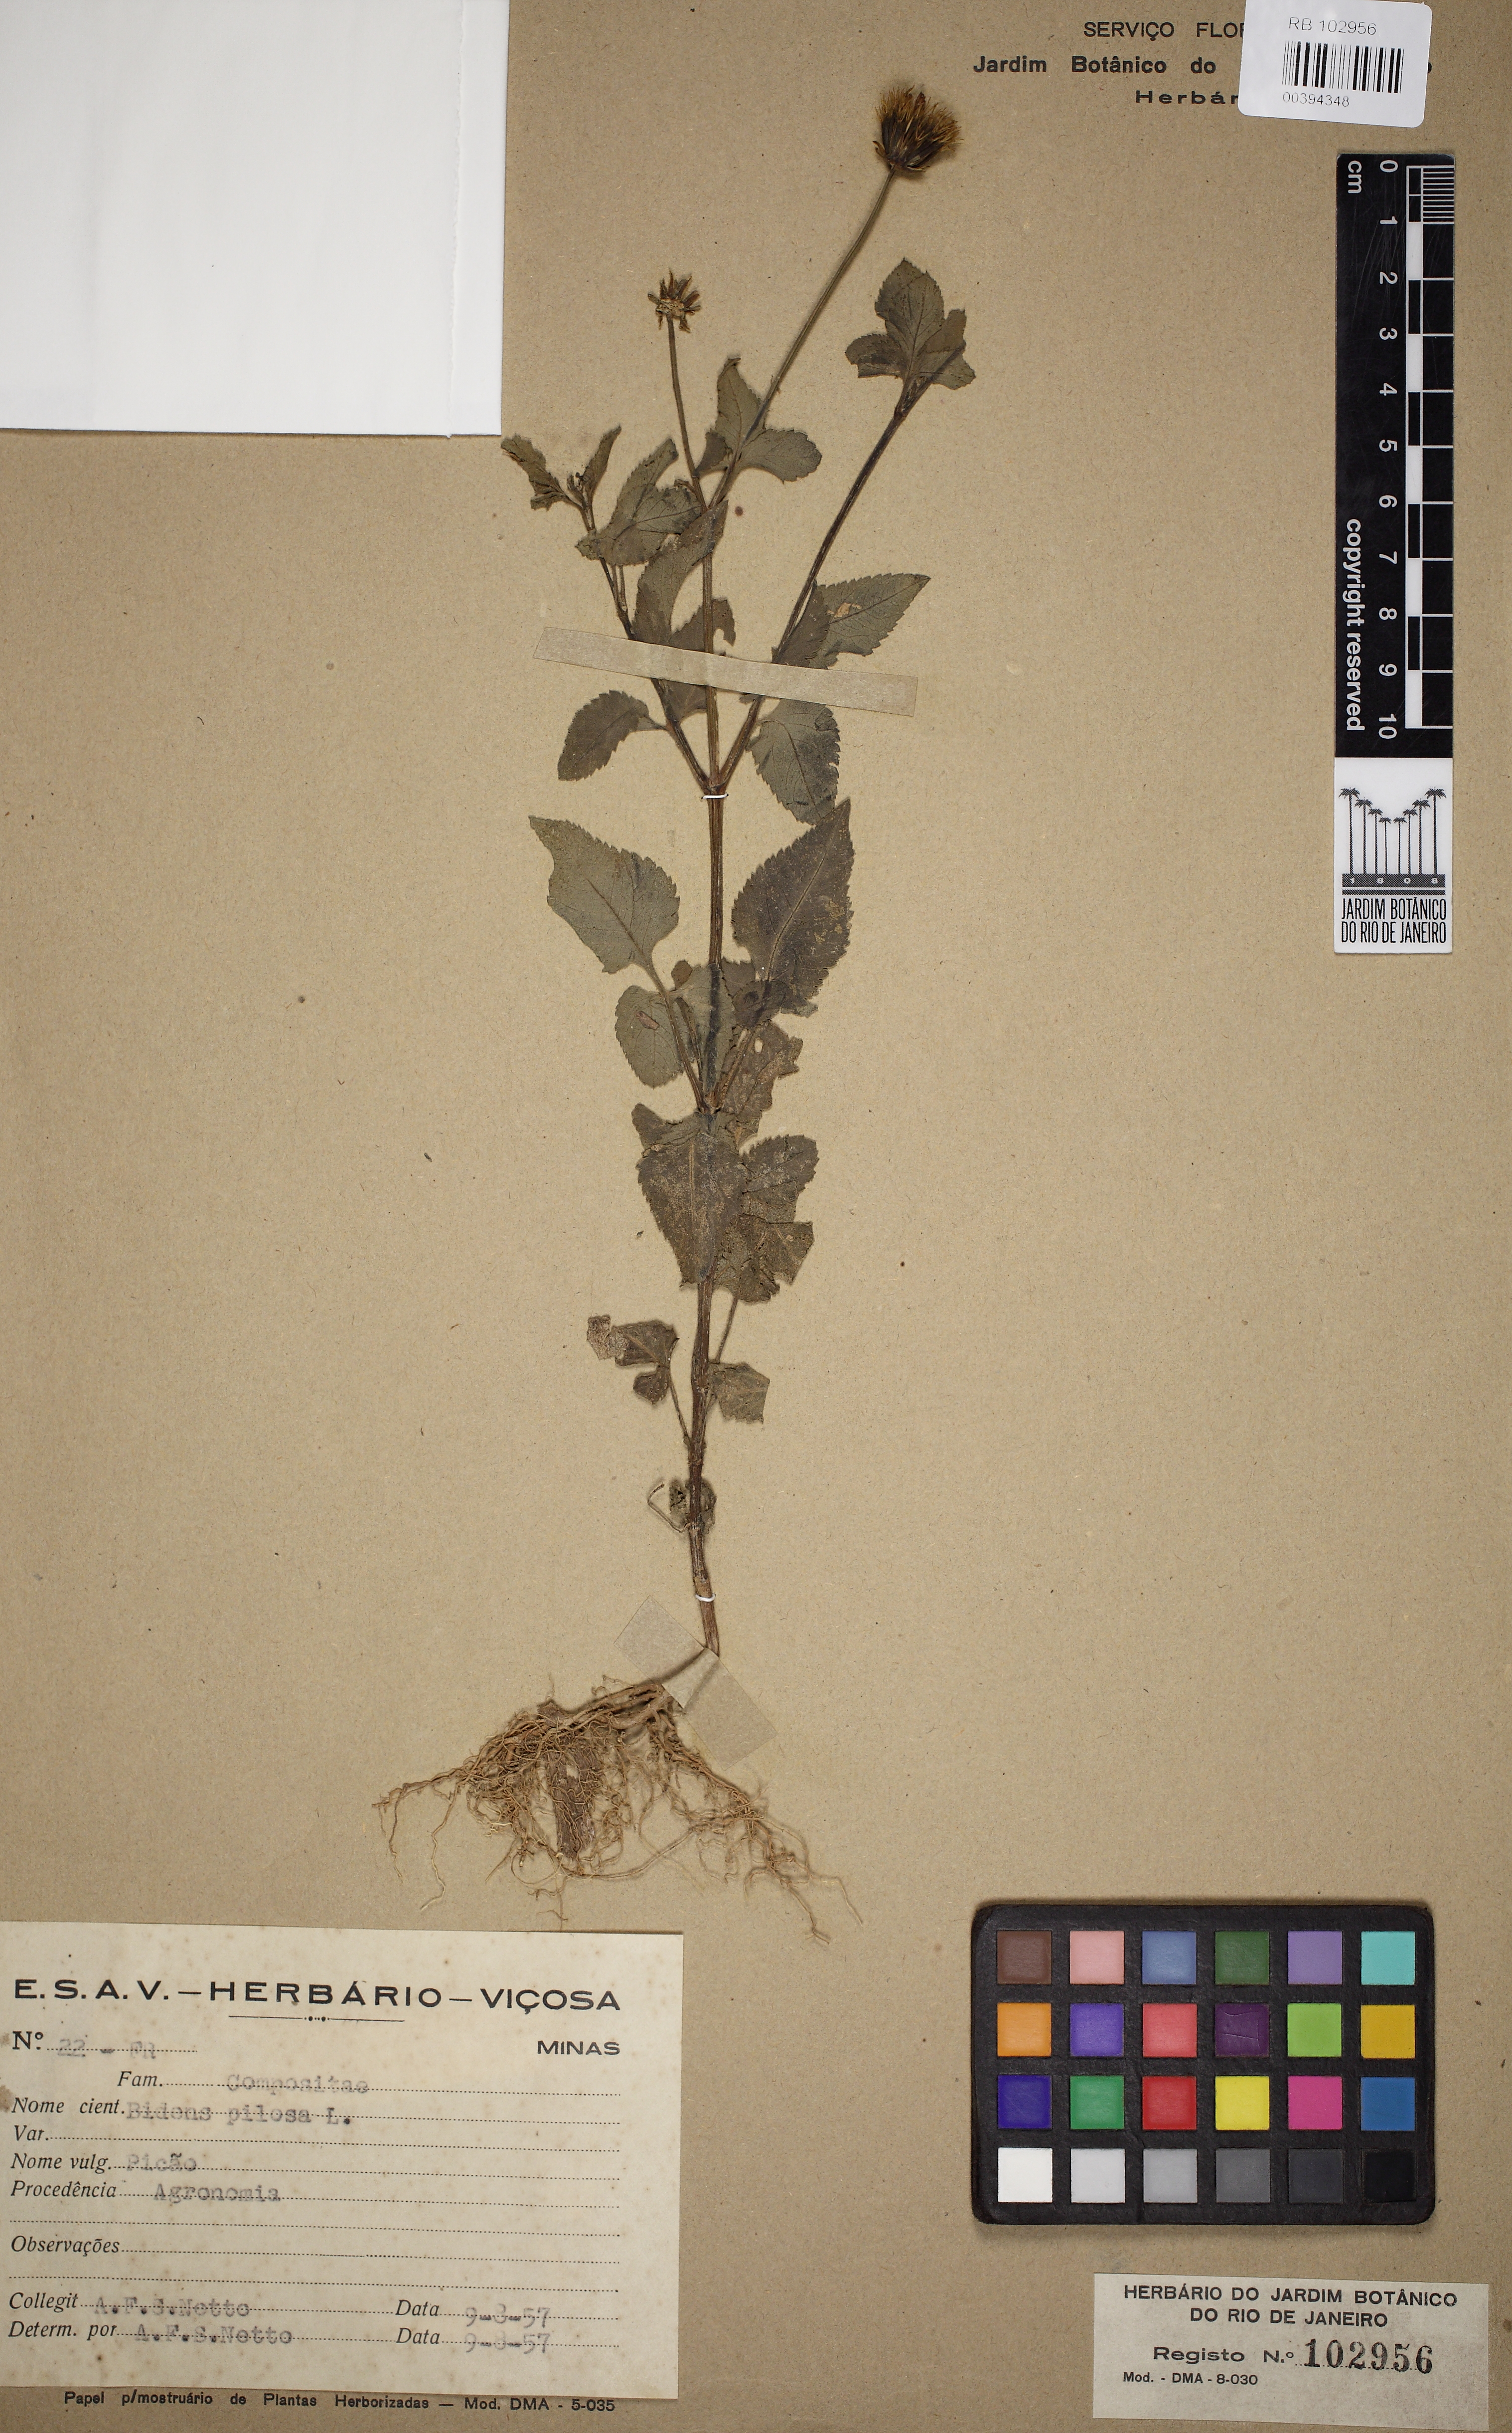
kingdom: Plantae
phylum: Tracheophyta
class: Magnoliopsida
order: Asterales
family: Asteraceae
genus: Bidens
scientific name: Bidens pilosa
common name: Black-jack
